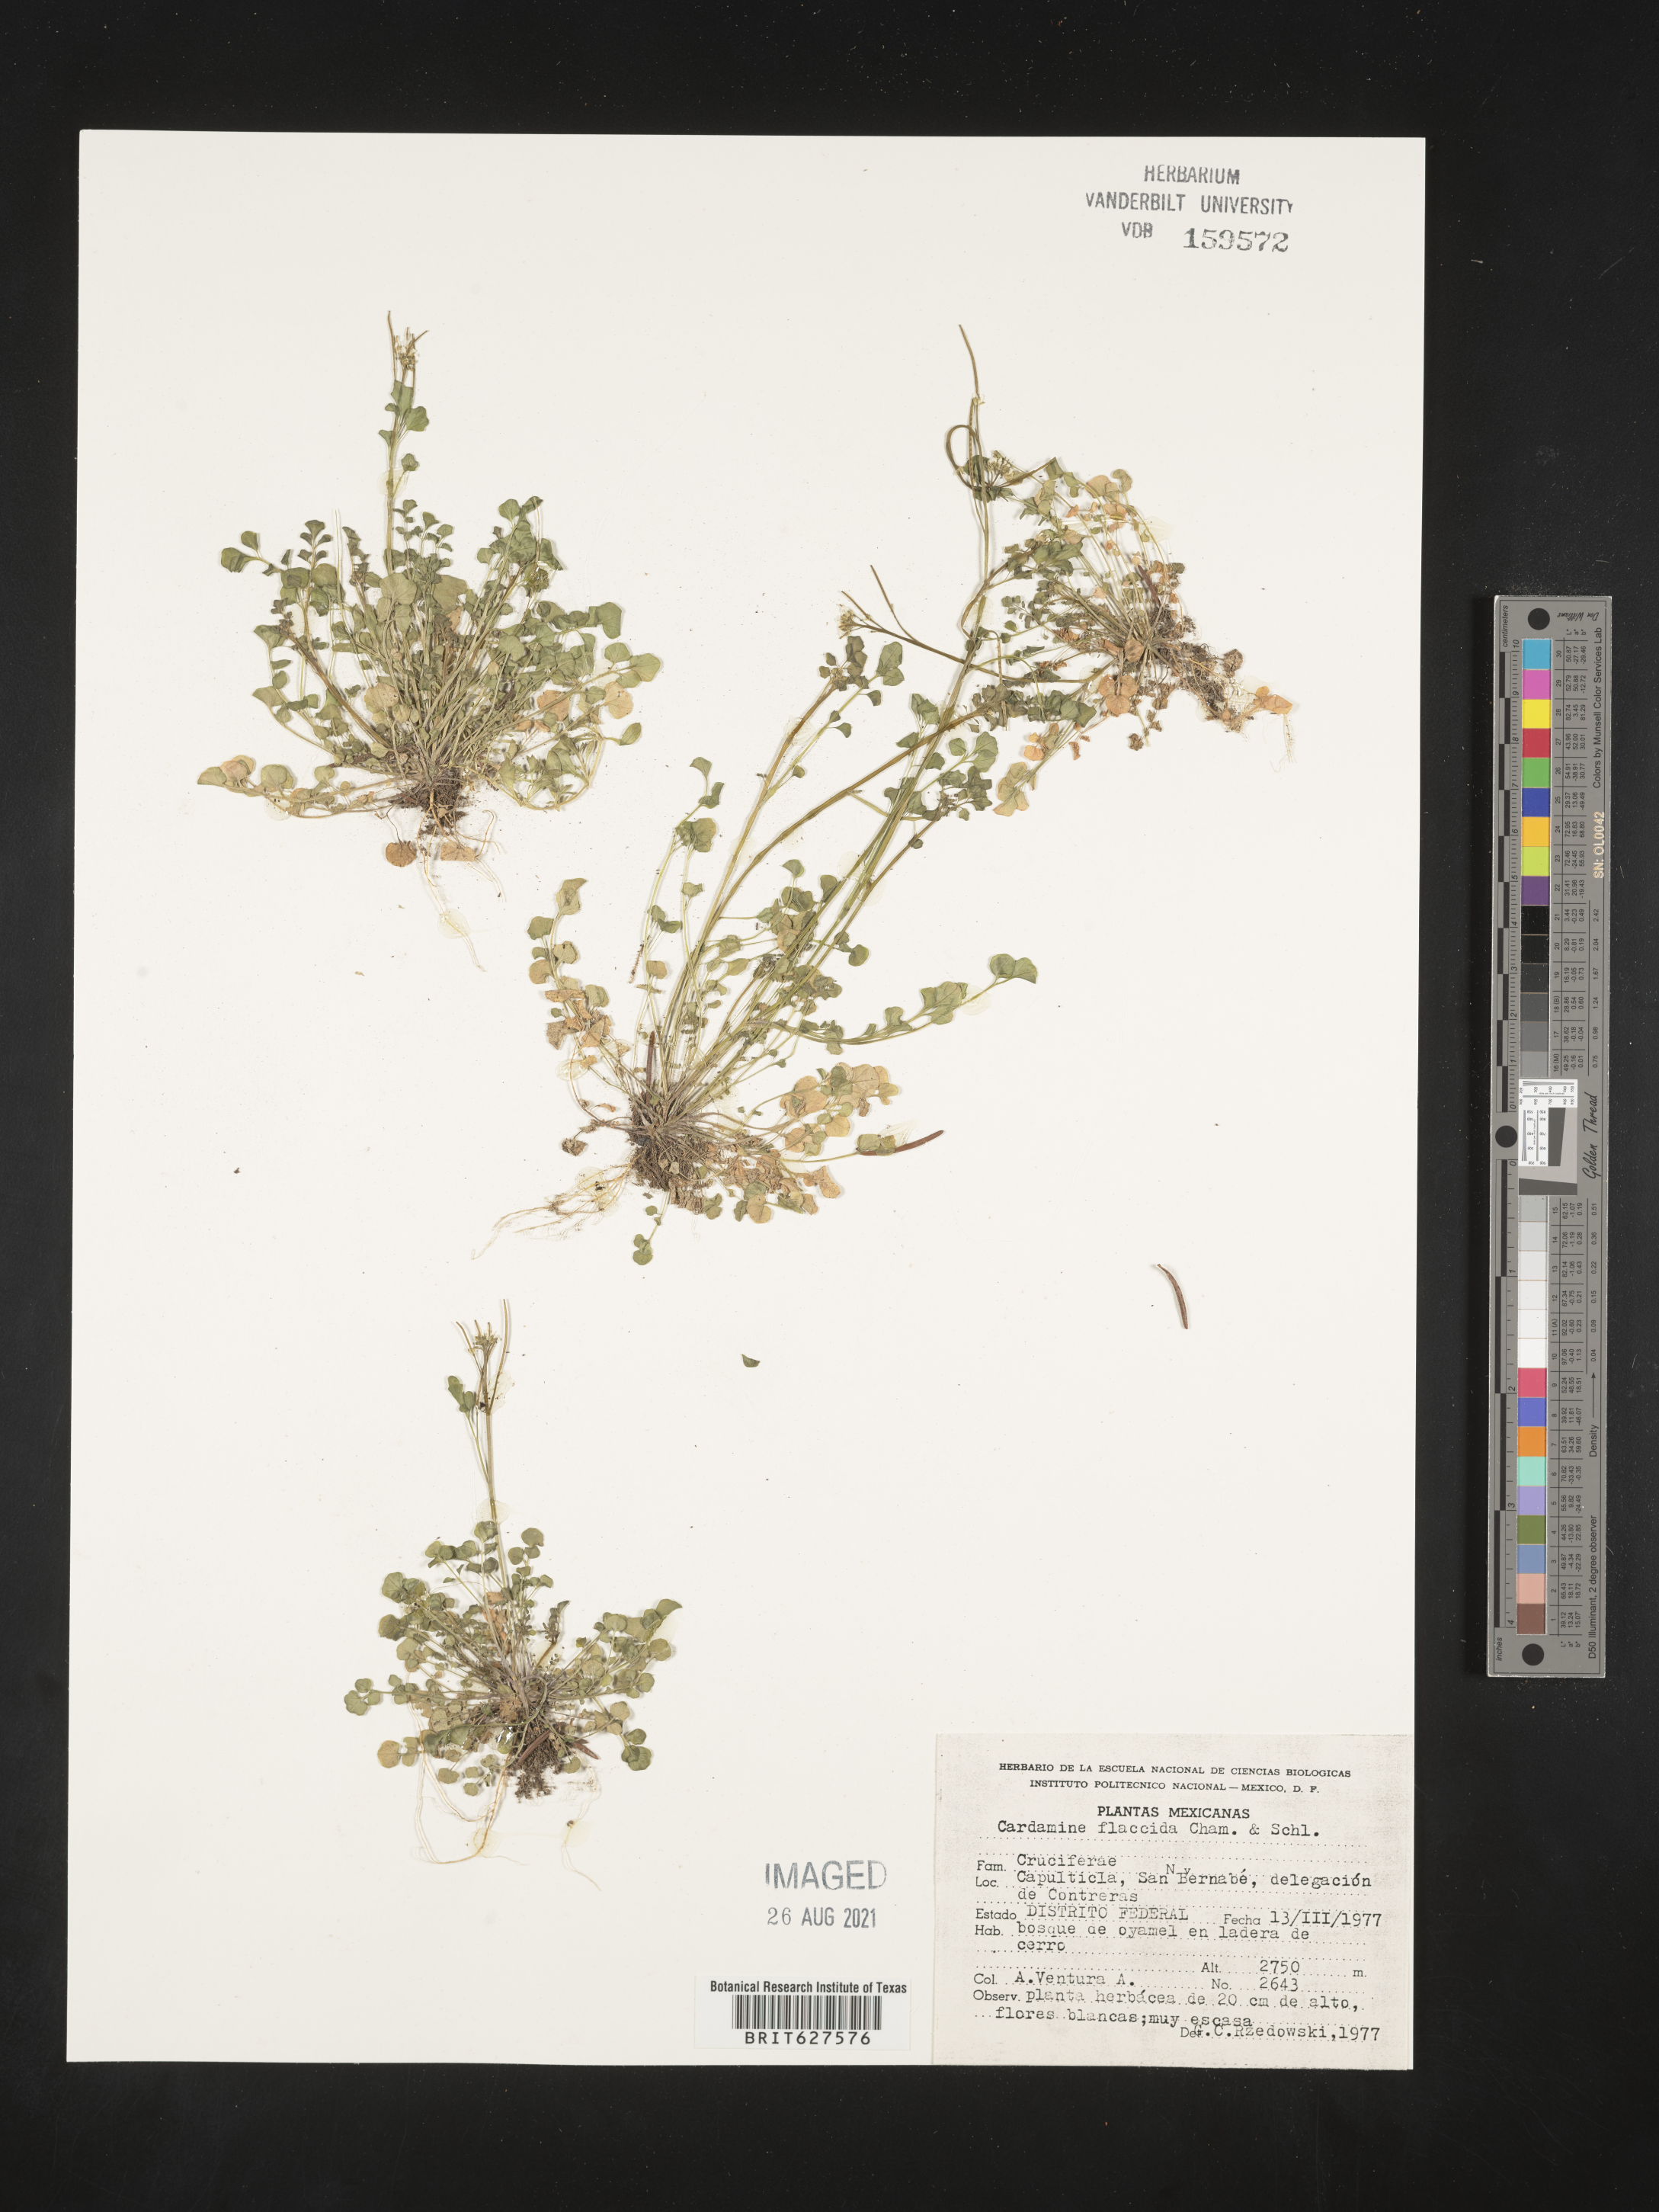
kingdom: Plantae
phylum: Tracheophyta
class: Magnoliopsida
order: Brassicales
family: Brassicaceae
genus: Cardamine
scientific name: Cardamine
